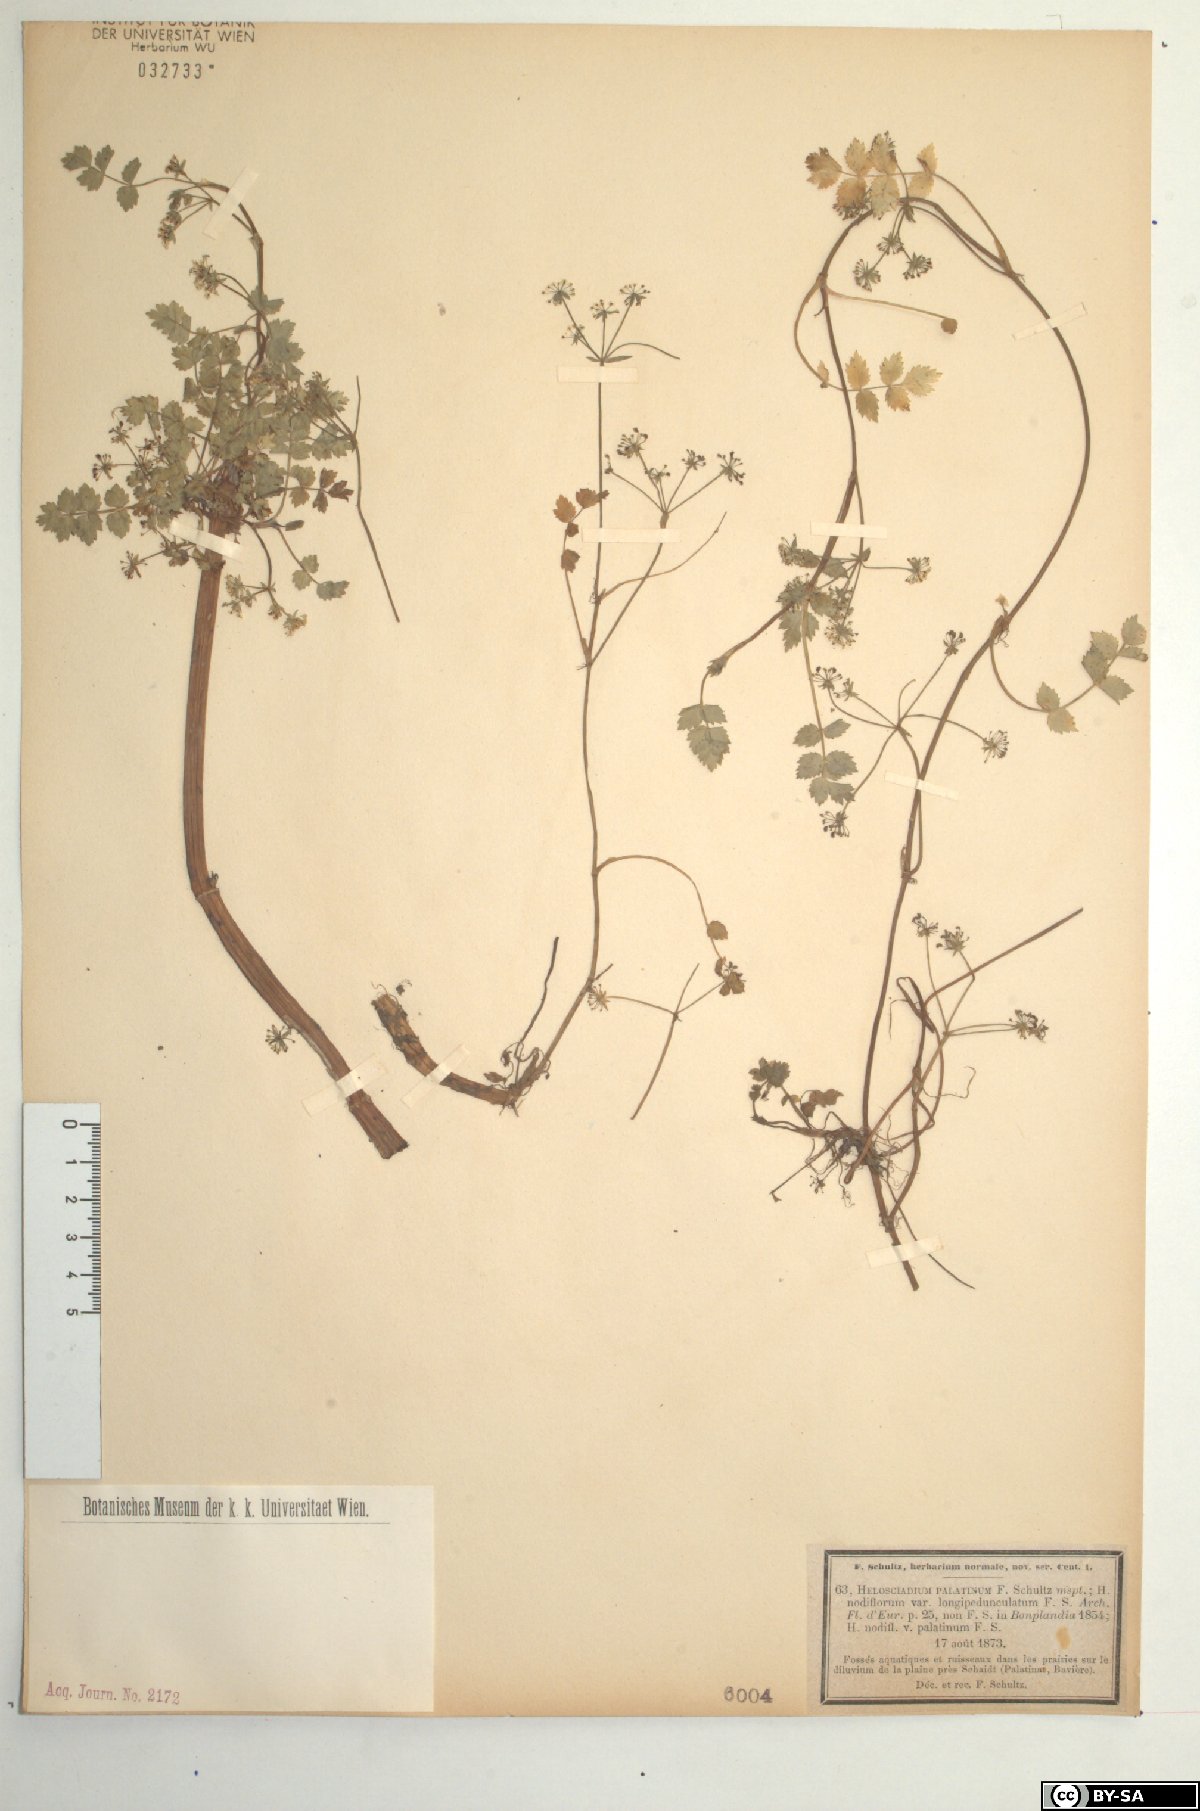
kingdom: Plantae
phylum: Tracheophyta
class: Magnoliopsida
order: Apiales
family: Apiaceae
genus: Helosciadium
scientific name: Helosciadium repens
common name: Creeping marshwort
